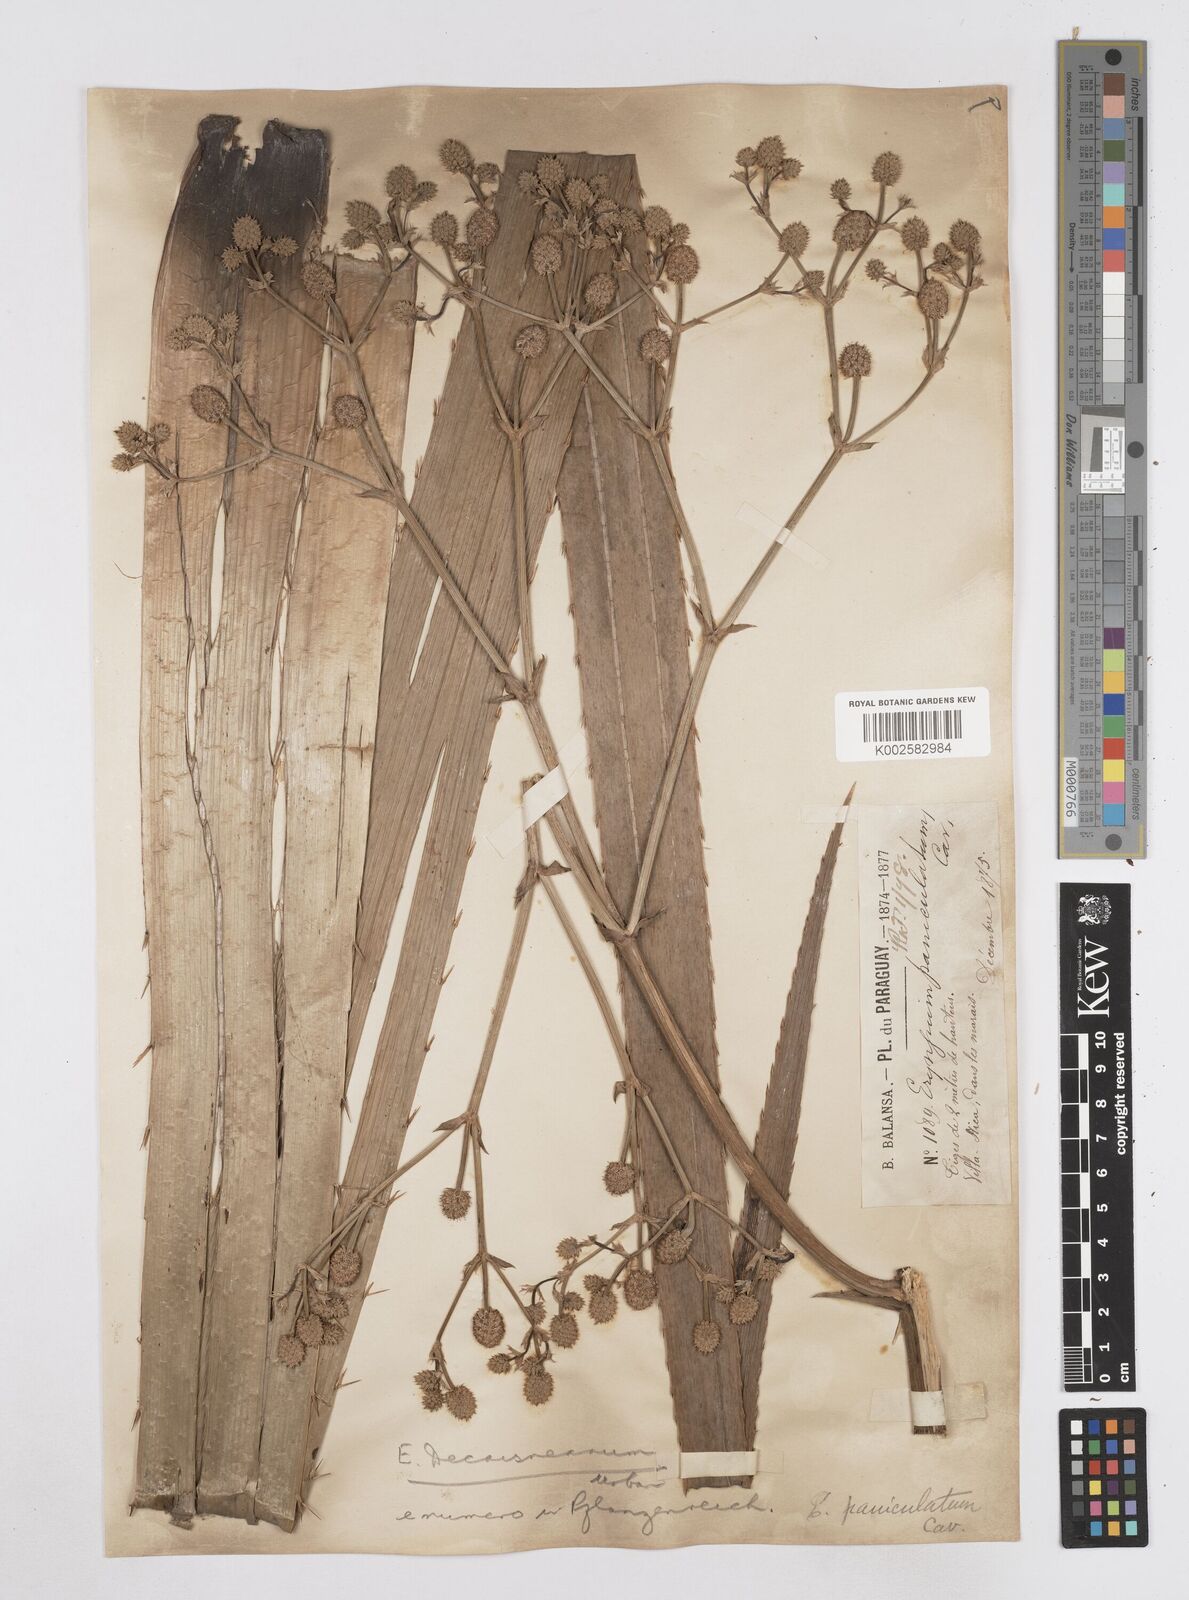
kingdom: Plantae
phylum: Tracheophyta
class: Magnoliopsida
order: Apiales
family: Apiaceae
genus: Eryngium
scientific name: Eryngium pandanifolium
